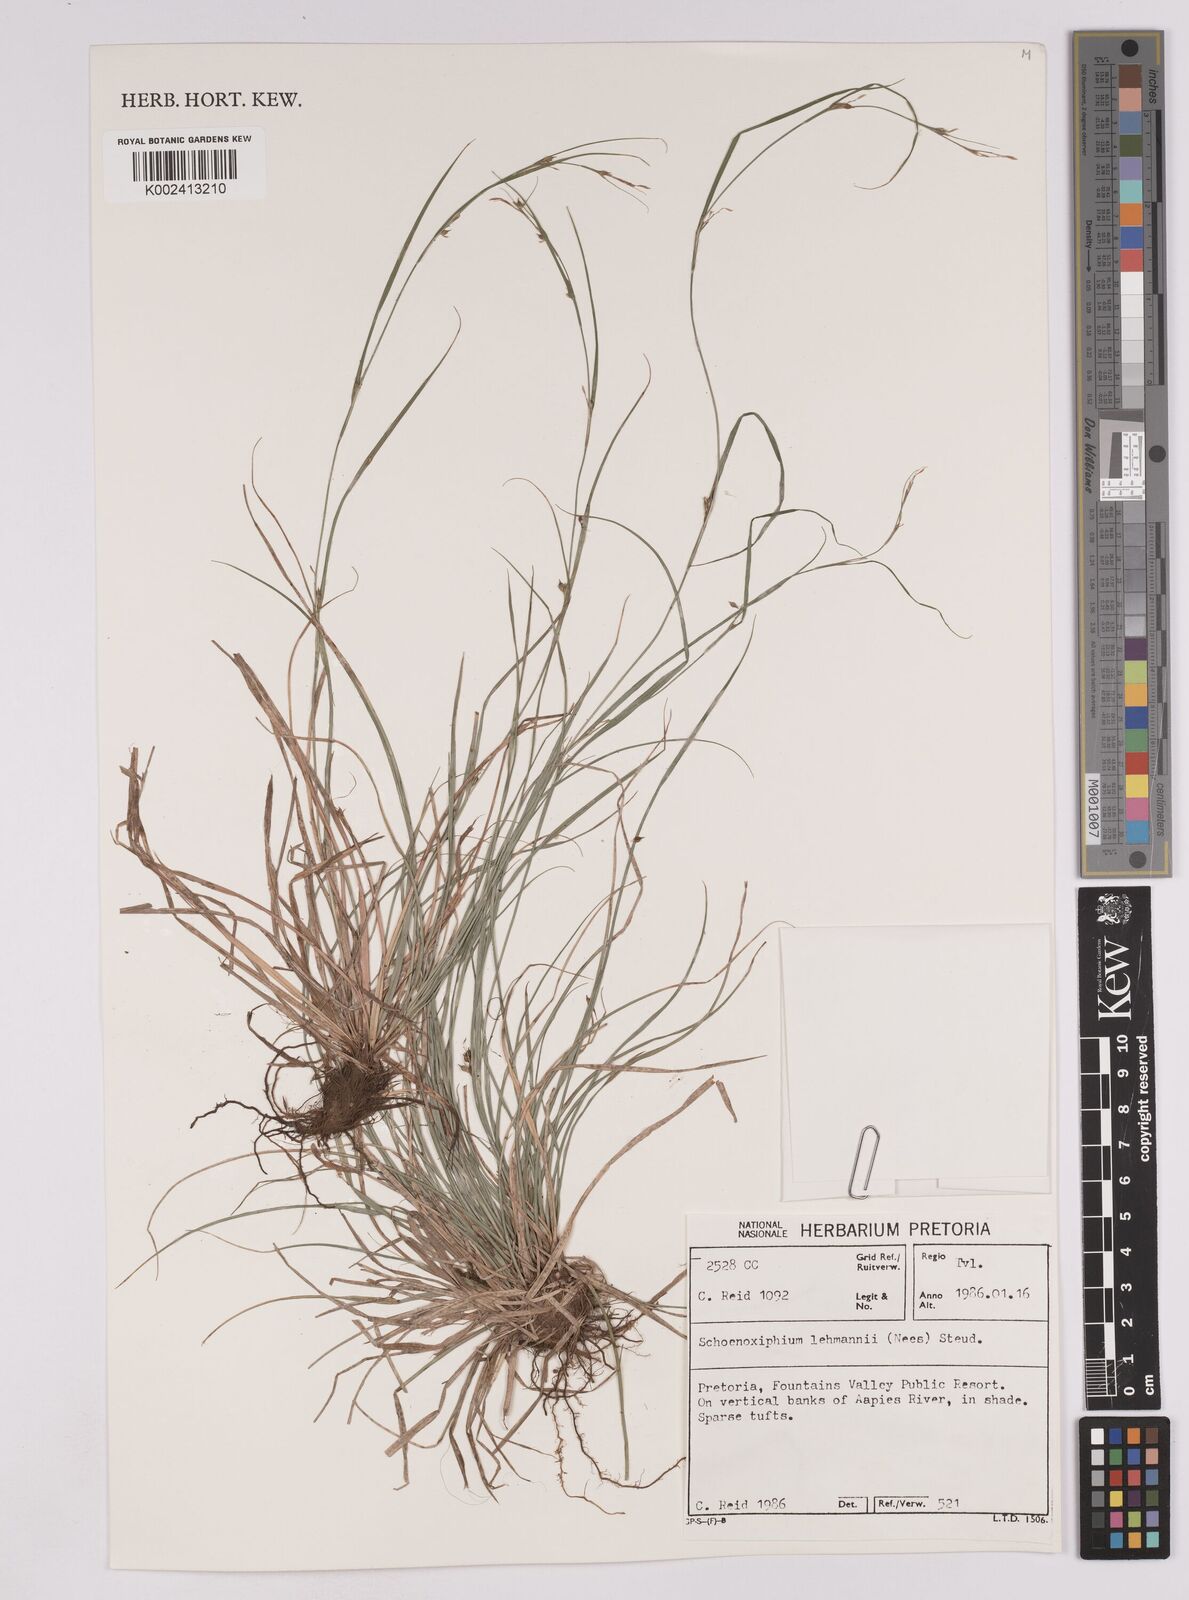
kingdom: Plantae
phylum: Tracheophyta
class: Liliopsida
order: Poales
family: Cyperaceae
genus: Carex
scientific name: Carex uhligii
